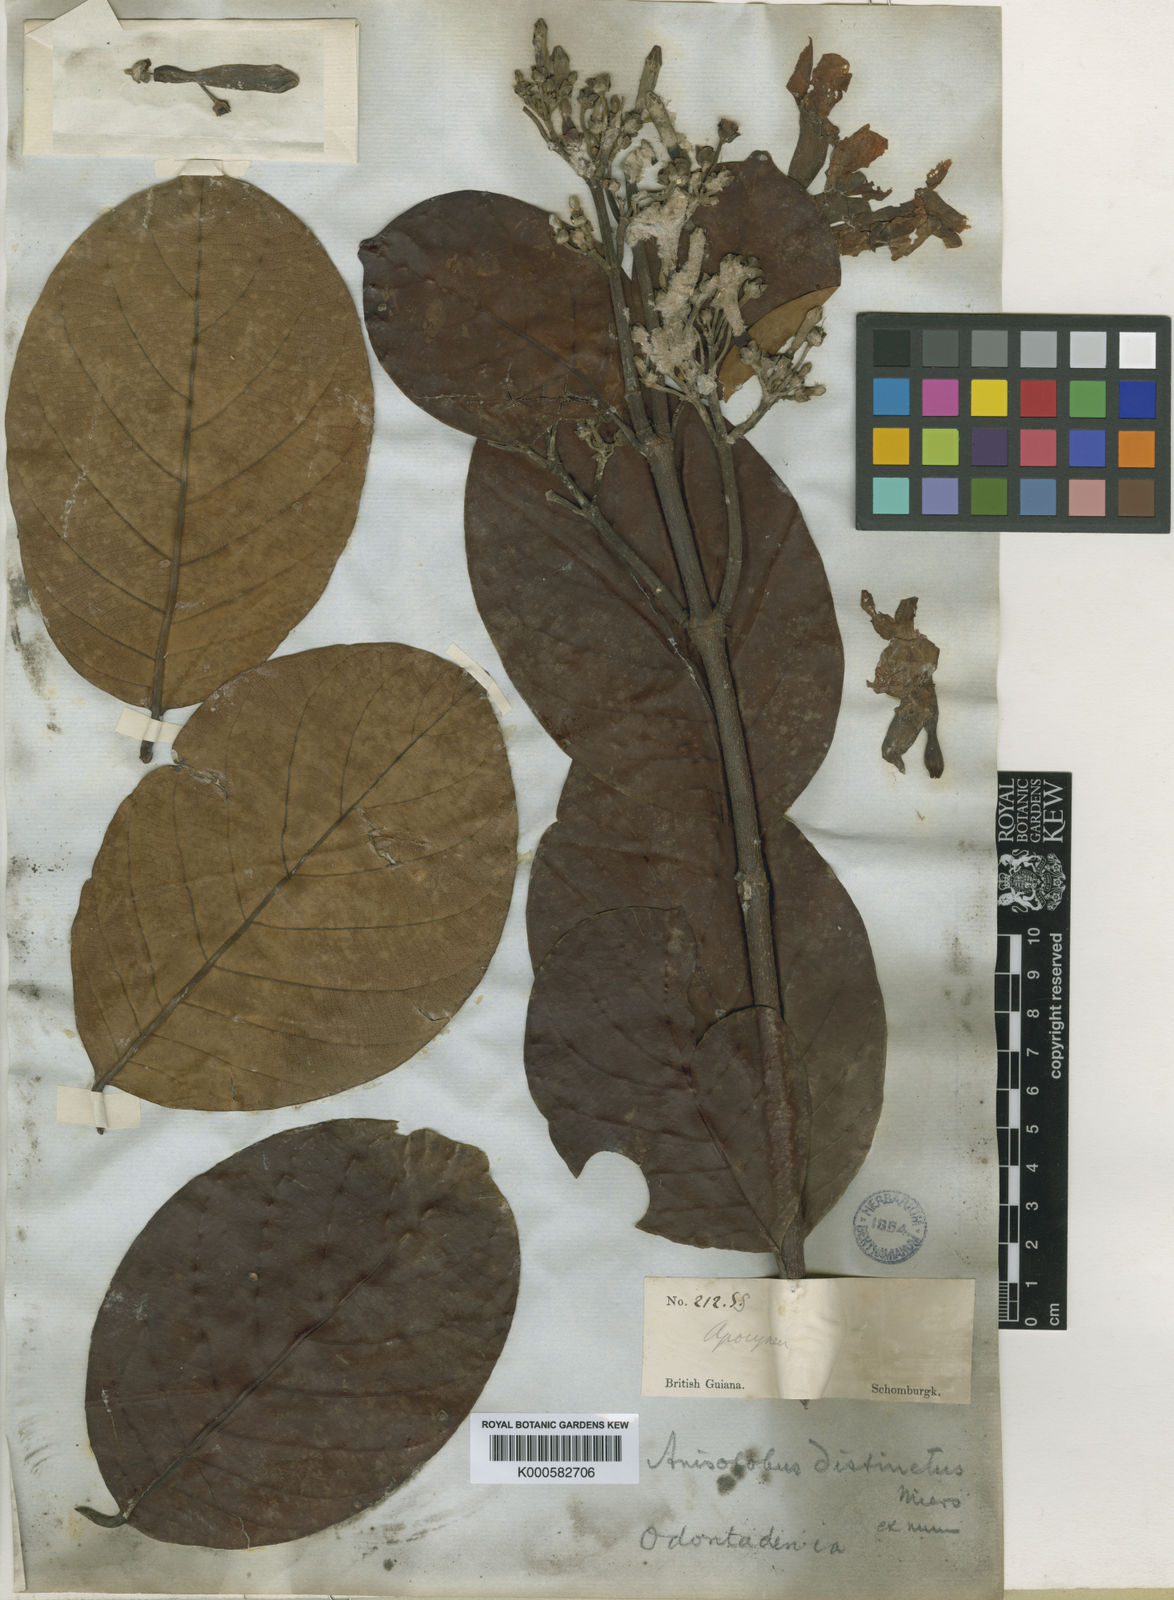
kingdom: Plantae
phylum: Tracheophyta
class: Magnoliopsida
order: Gentianales
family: Apocynaceae
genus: Odontadenia
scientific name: Odontadenia puncticulosa
